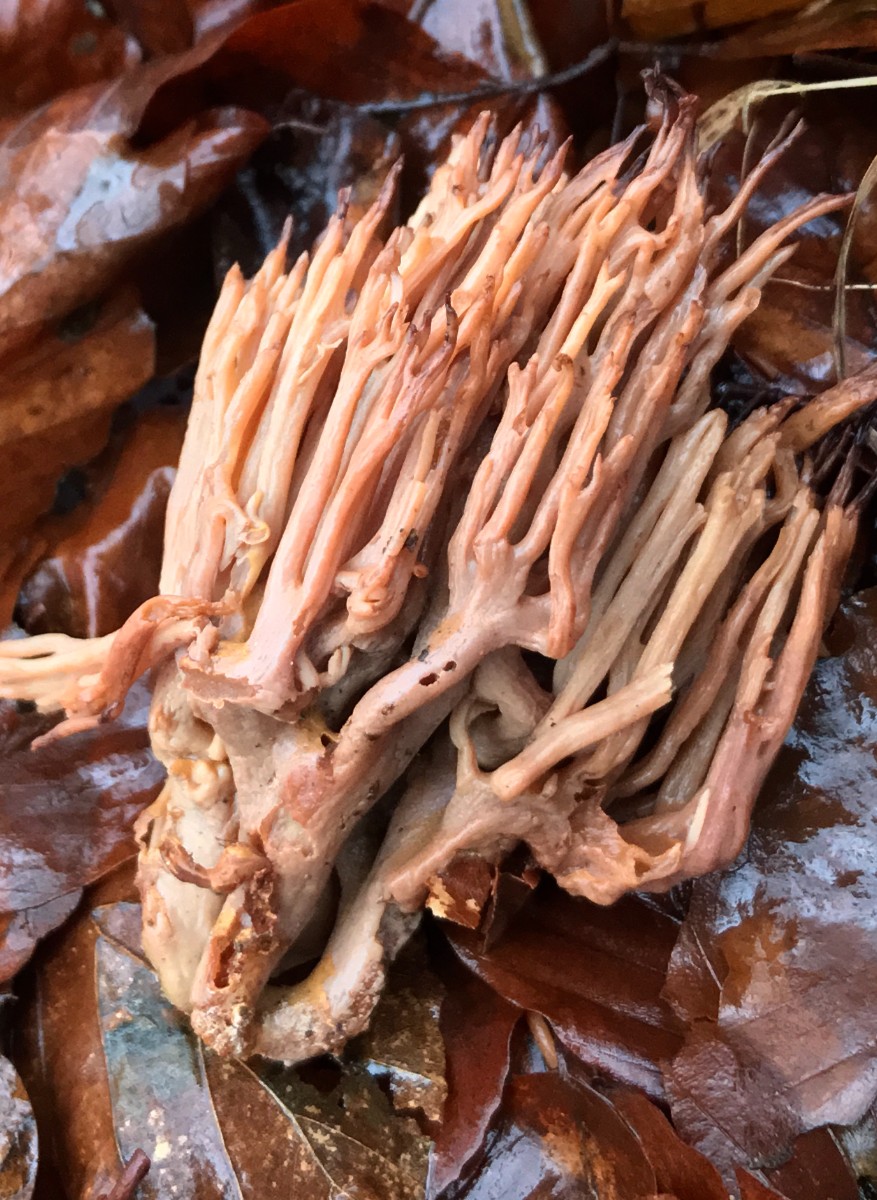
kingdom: Fungi
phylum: Basidiomycota
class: Agaricomycetes
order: Gomphales
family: Gomphaceae
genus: Ramaria
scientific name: Ramaria stricta
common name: rank koralsvamp
